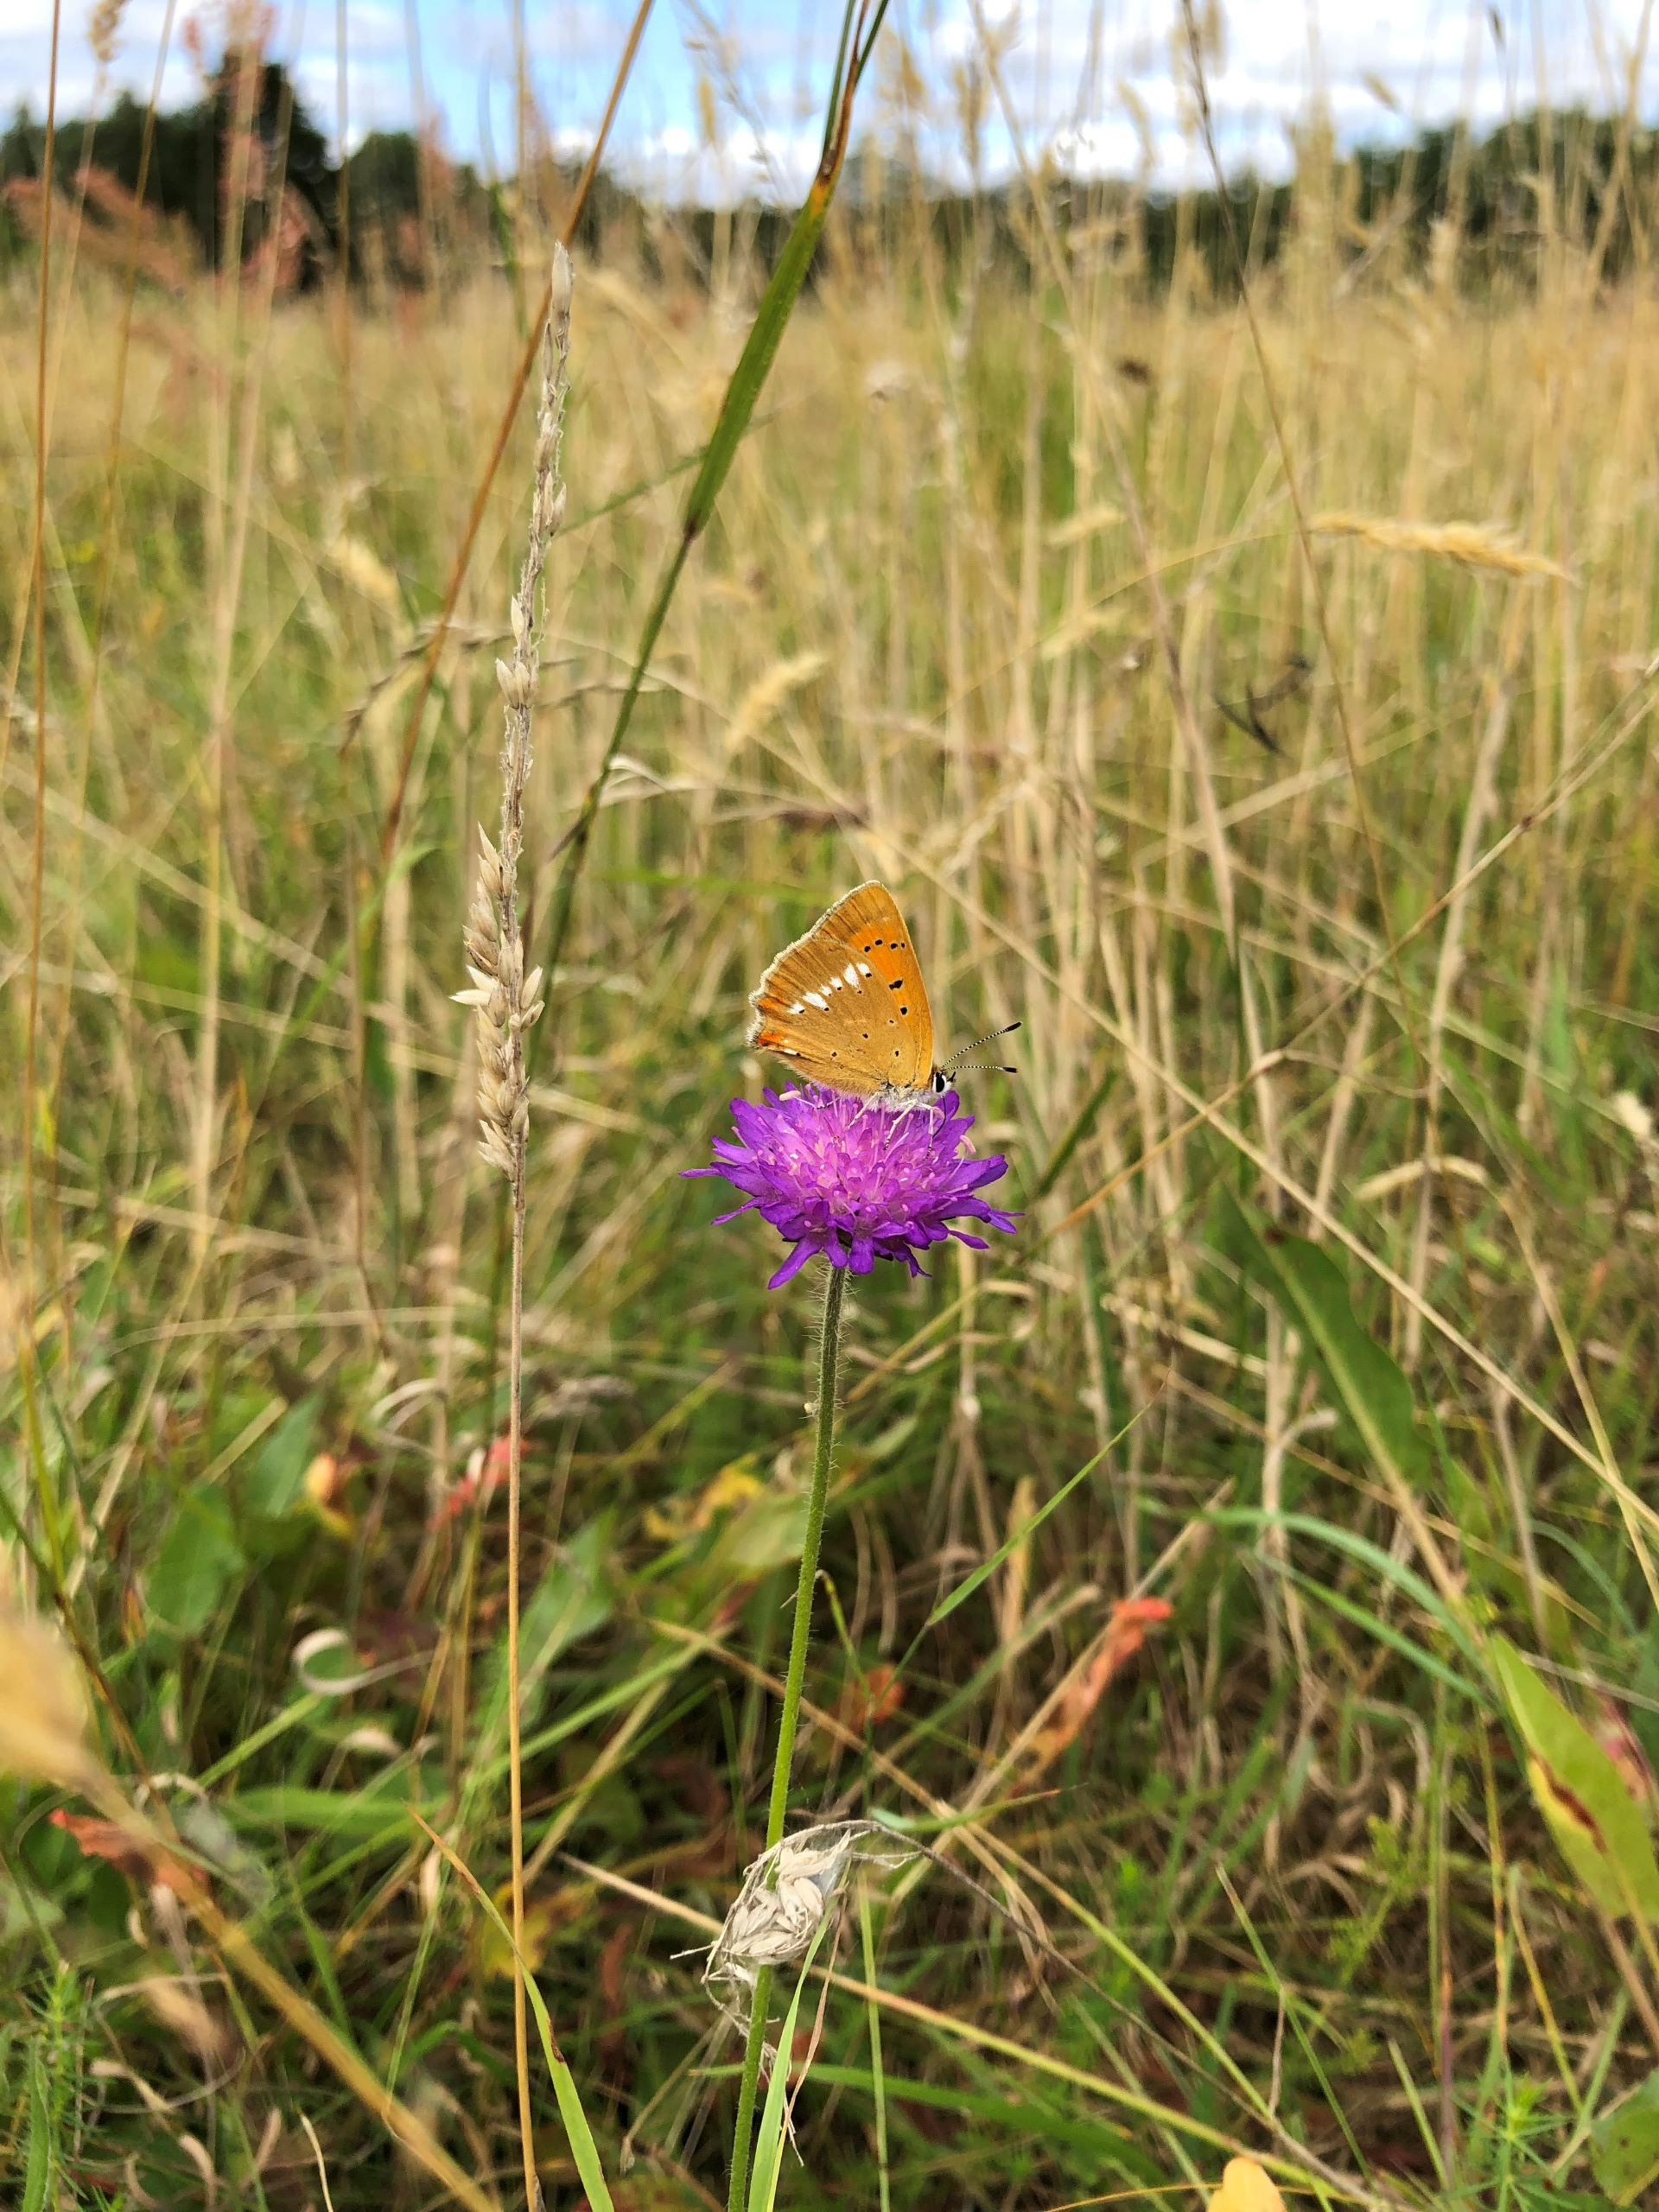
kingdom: Animalia
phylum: Arthropoda
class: Insecta
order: Lepidoptera
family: Lycaenidae
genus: Lycaena
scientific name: Lycaena virgaureae
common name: Dukatsommerfugl
